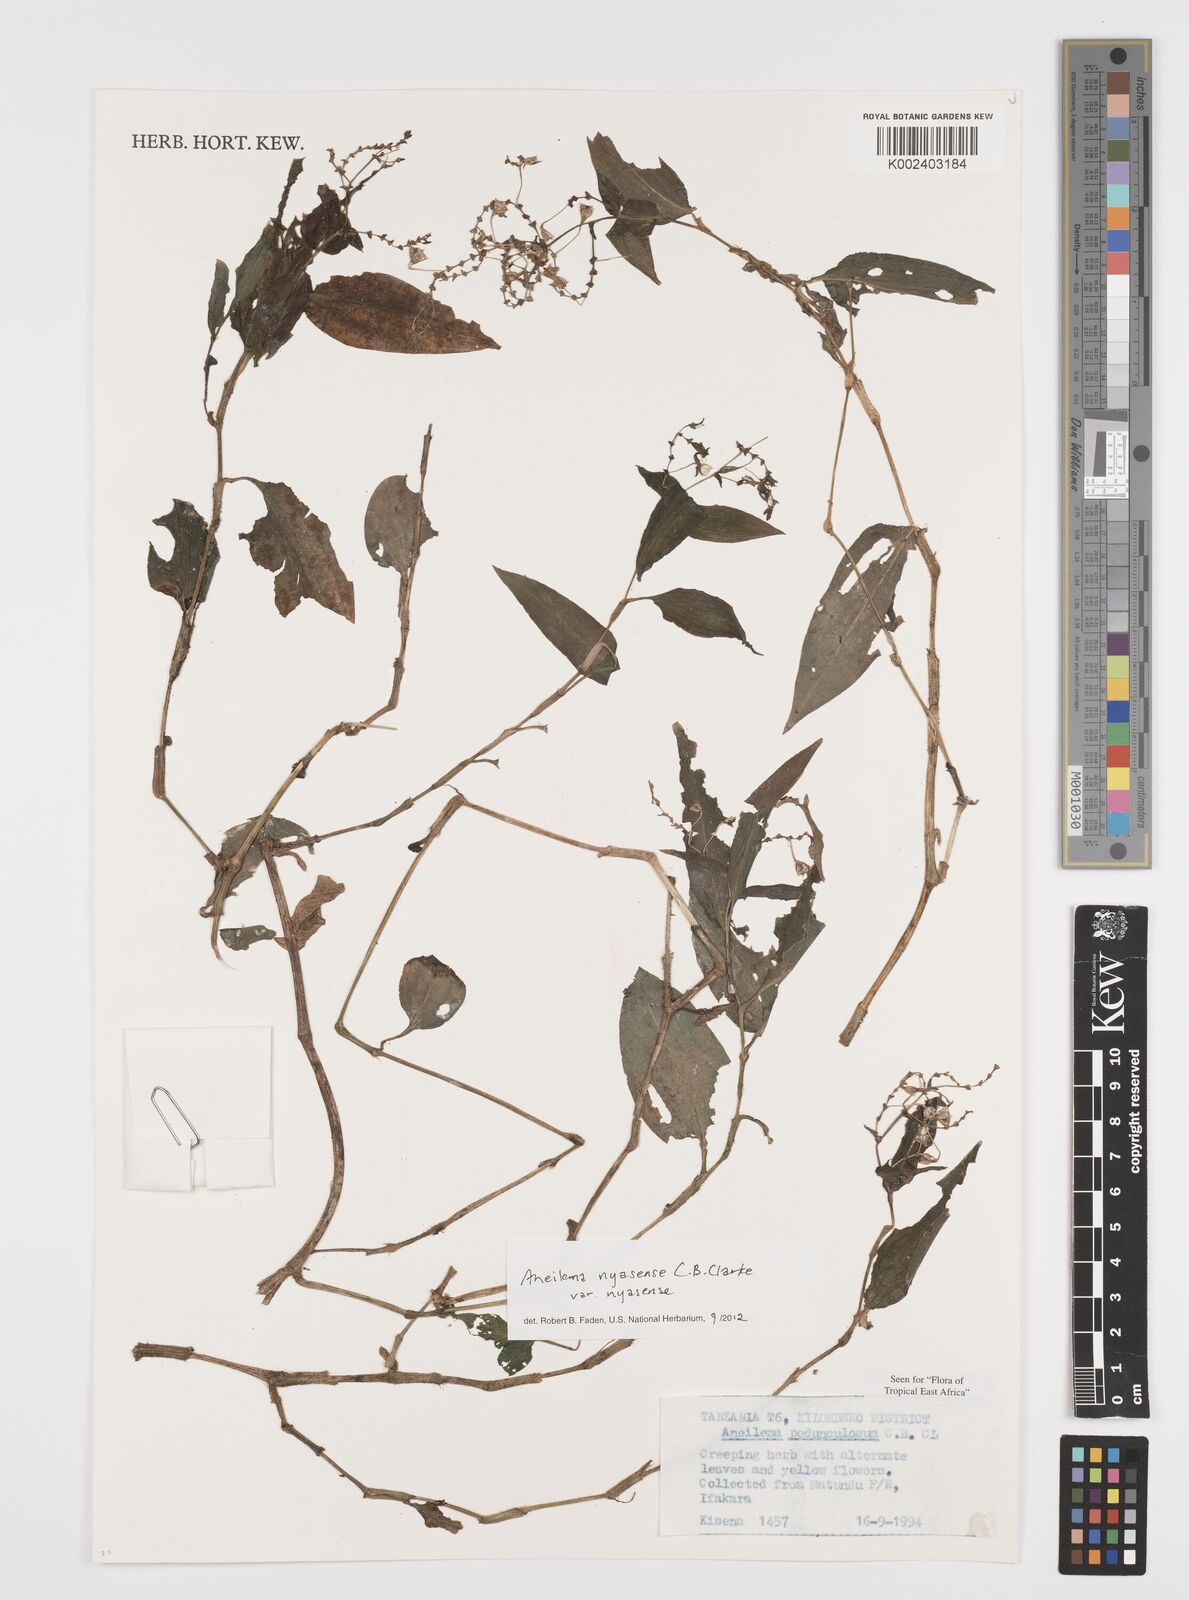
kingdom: Plantae
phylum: Tracheophyta
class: Liliopsida
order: Commelinales
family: Commelinaceae
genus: Aneilema
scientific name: Aneilema nyasense
